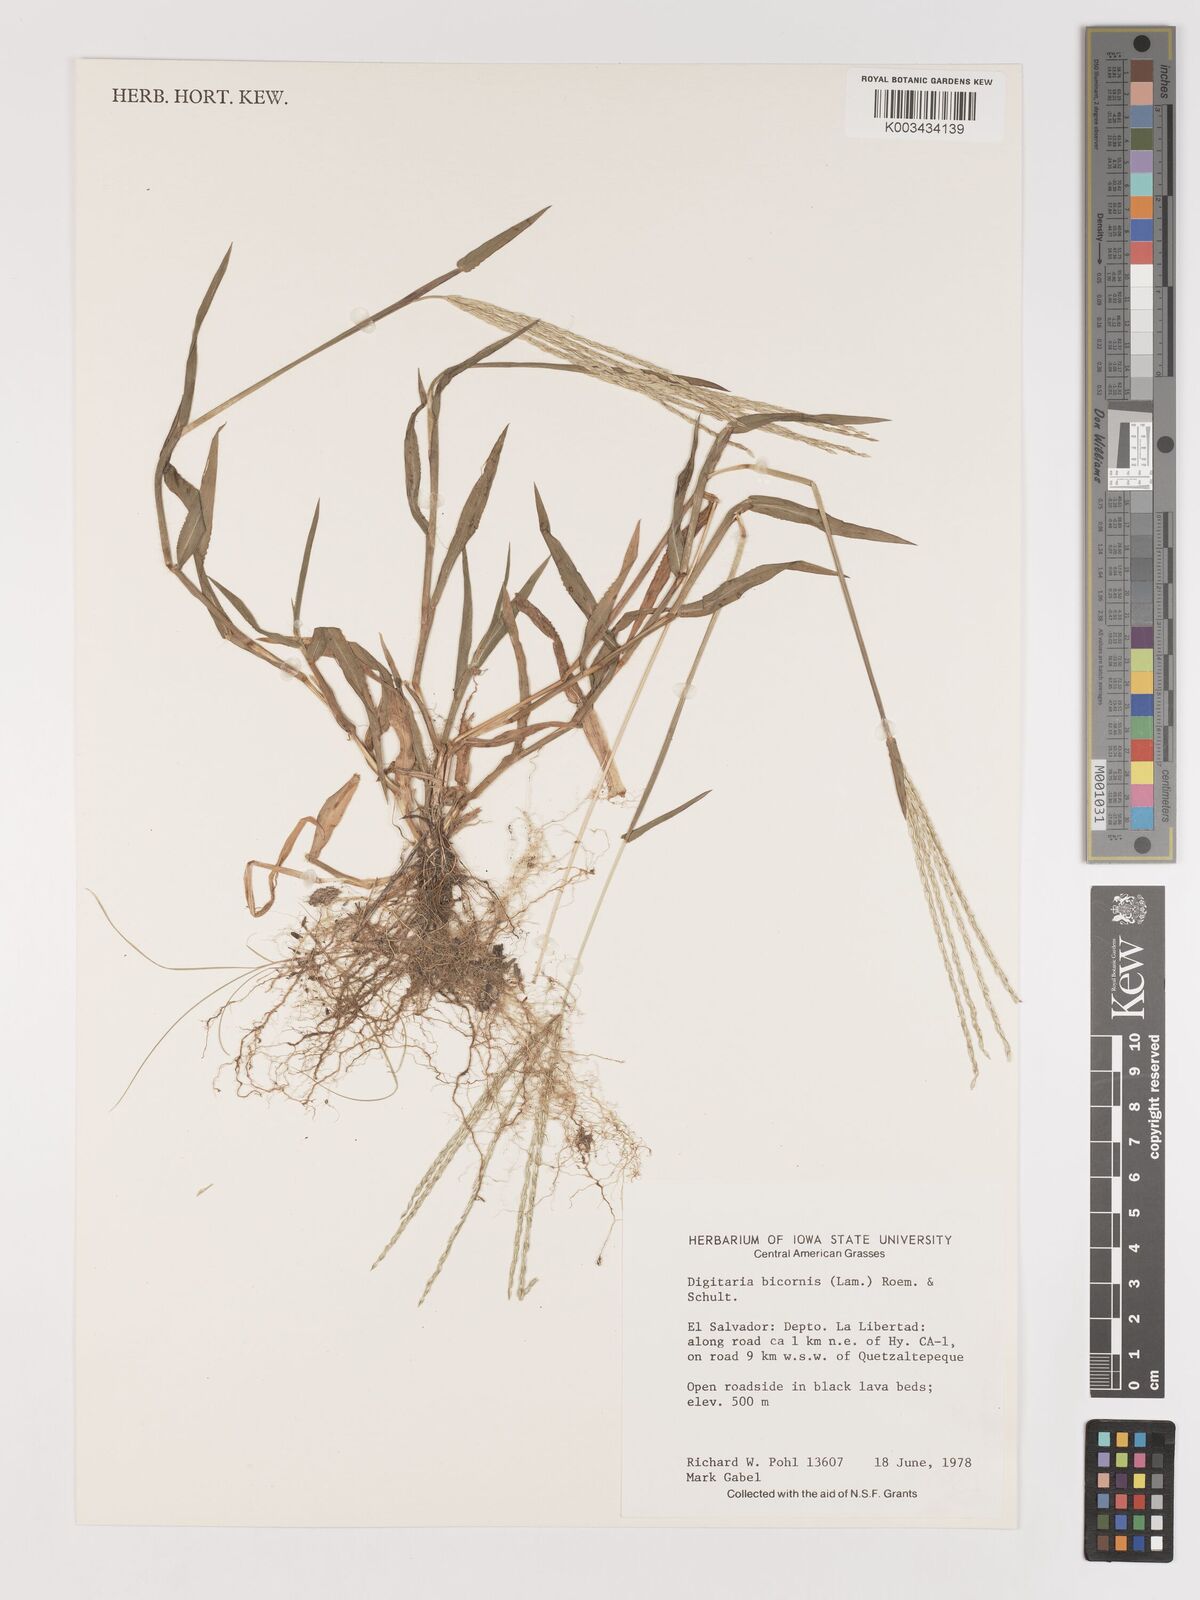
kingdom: Plantae
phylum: Tracheophyta
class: Liliopsida
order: Poales
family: Poaceae
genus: Digitaria
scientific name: Digitaria ciliaris
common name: Tropical finger-grass
